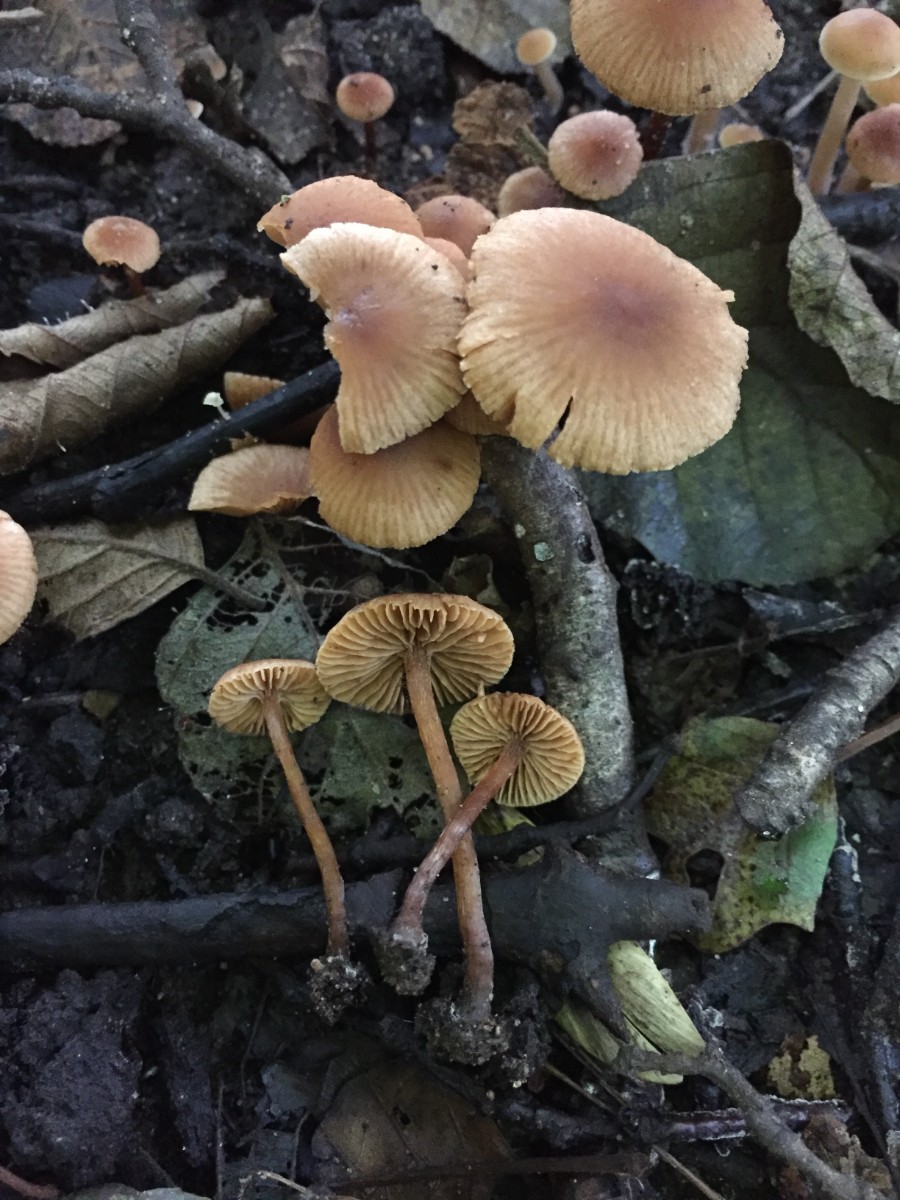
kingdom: Fungi
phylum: Basidiomycota
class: Agaricomycetes
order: Agaricales
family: Hymenogastraceae
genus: Naucoria
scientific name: Naucoria scolecina
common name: mørk elle-knaphat
